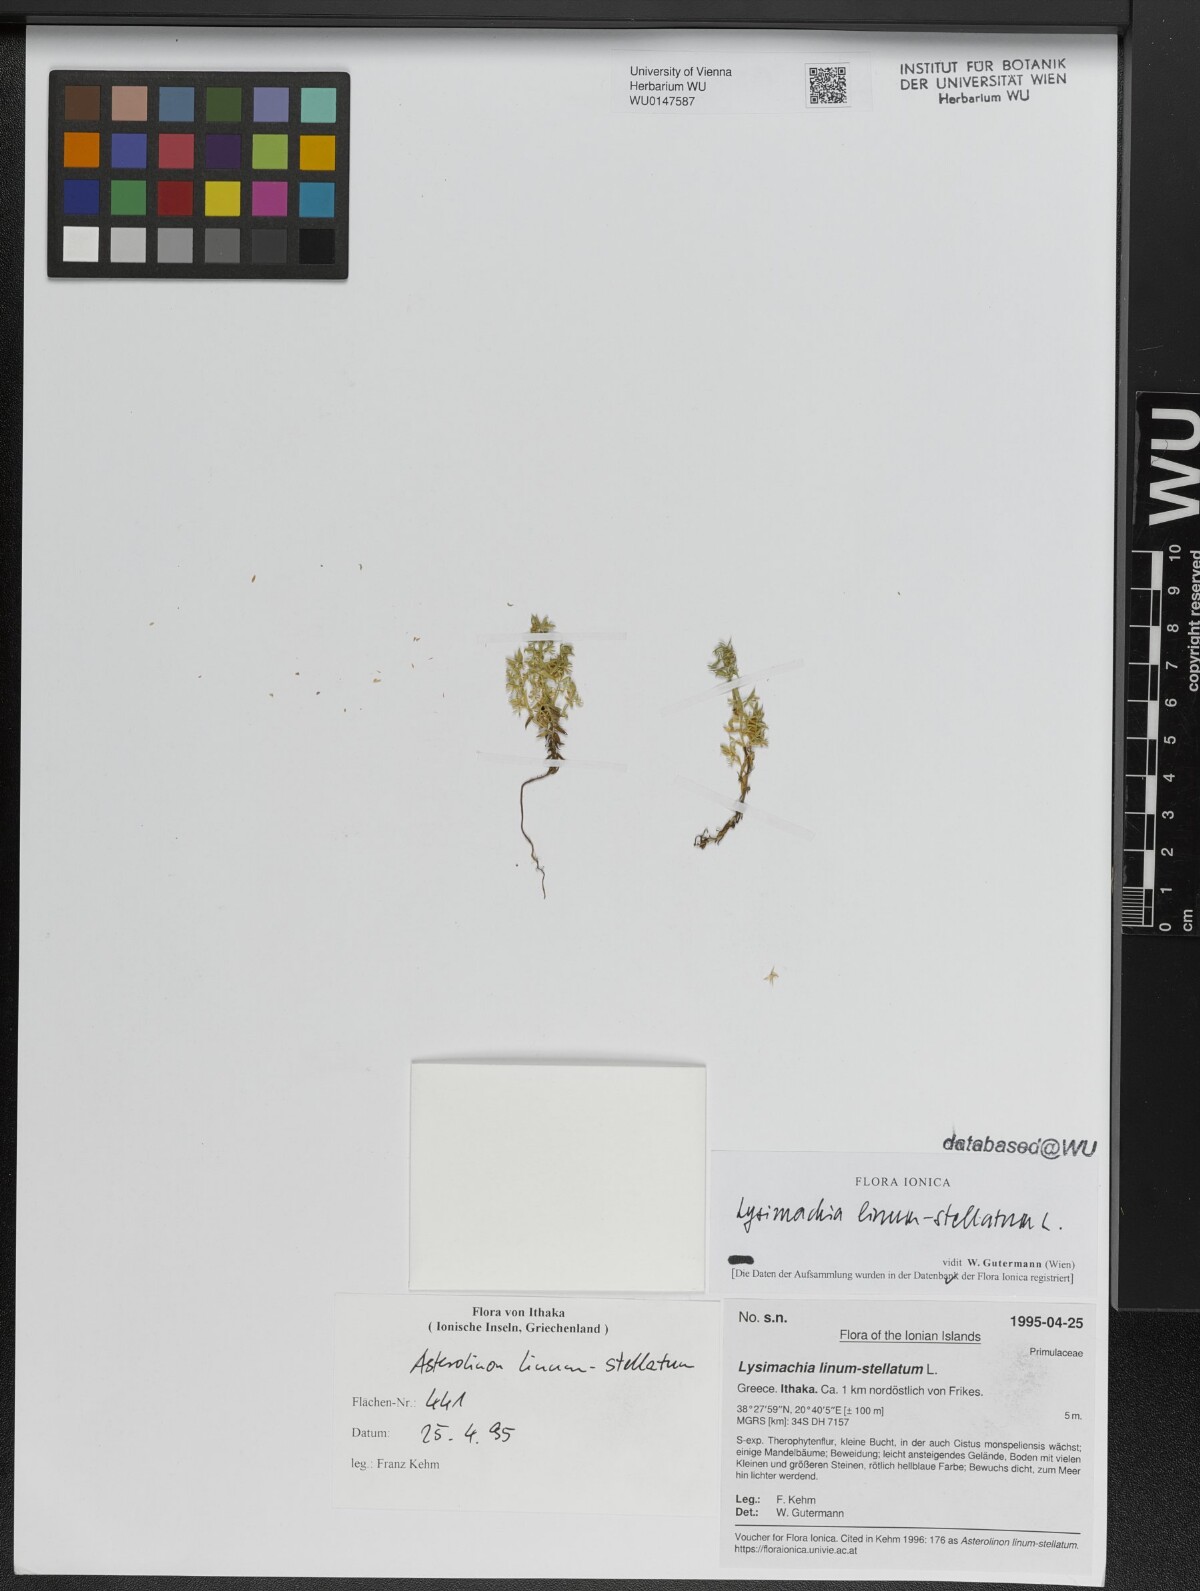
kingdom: Plantae
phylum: Tracheophyta
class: Magnoliopsida
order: Ericales
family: Primulaceae
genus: Lysimachia
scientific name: Lysimachia linum-stellatum
